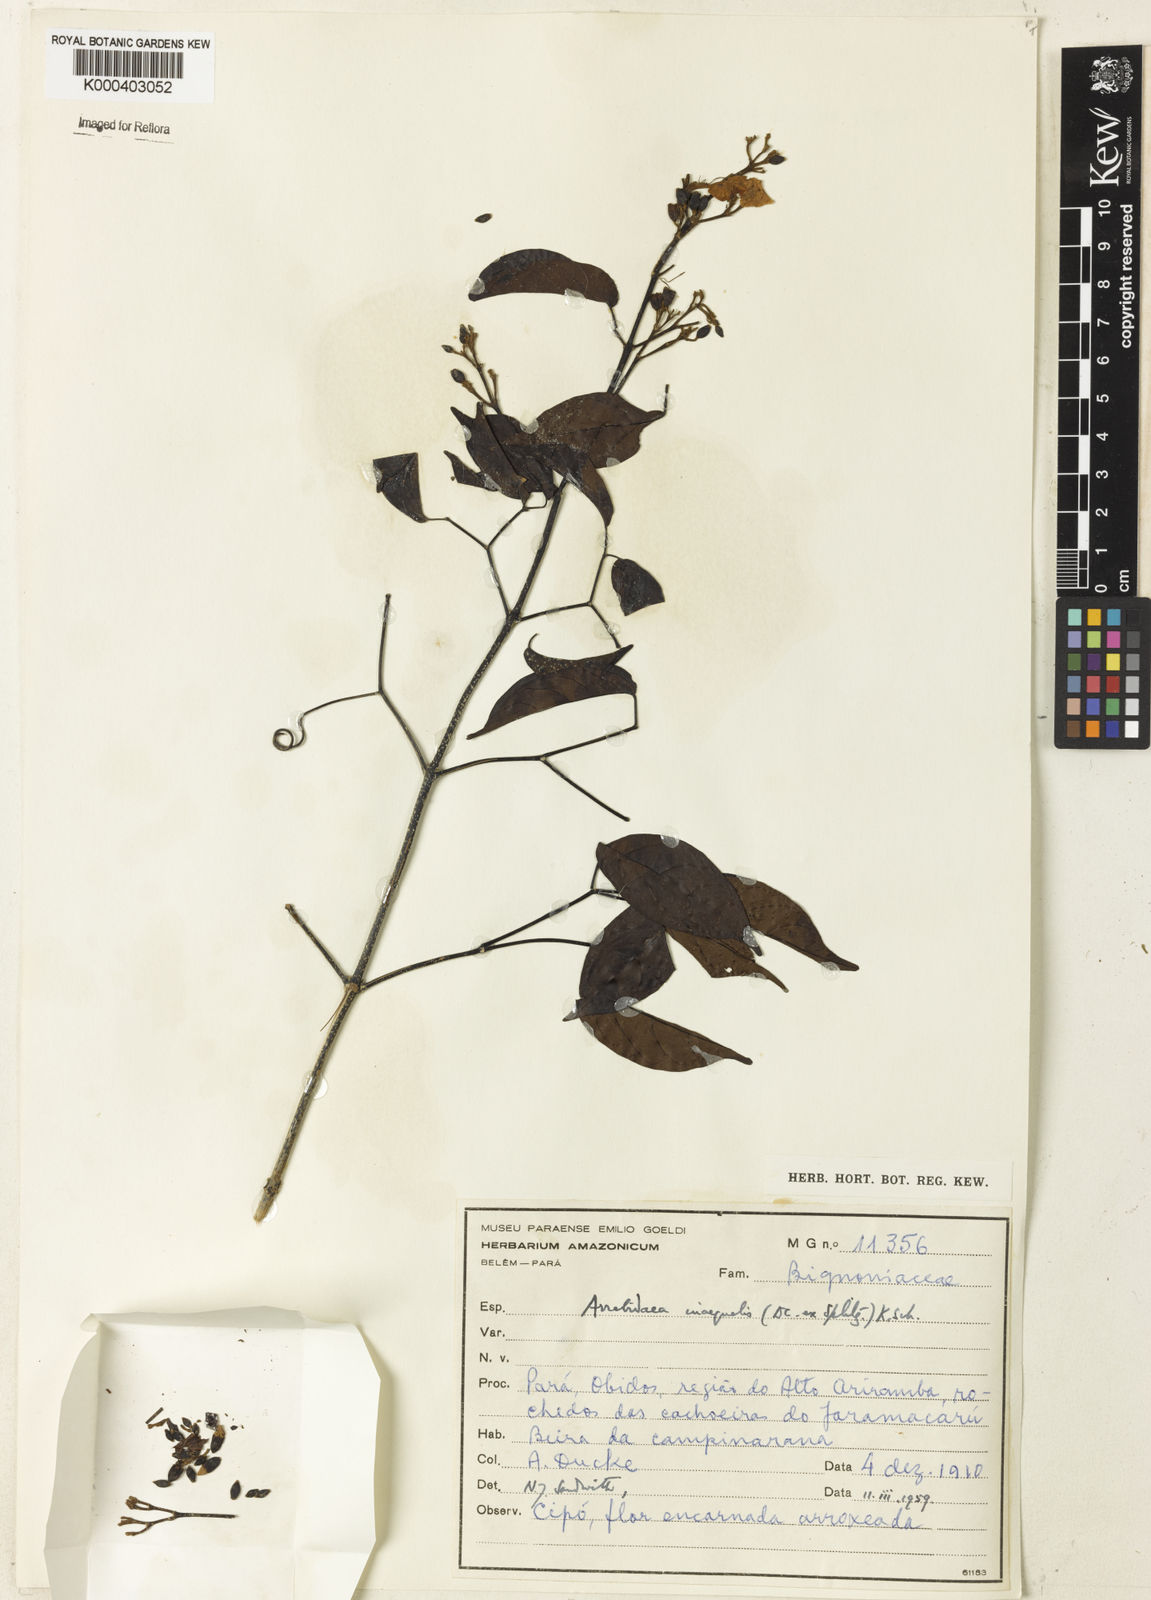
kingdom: Plantae
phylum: Tracheophyta
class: Magnoliopsida
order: Lamiales
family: Bignoniaceae
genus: Cuspidaria
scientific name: Cuspidaria inaequalis
